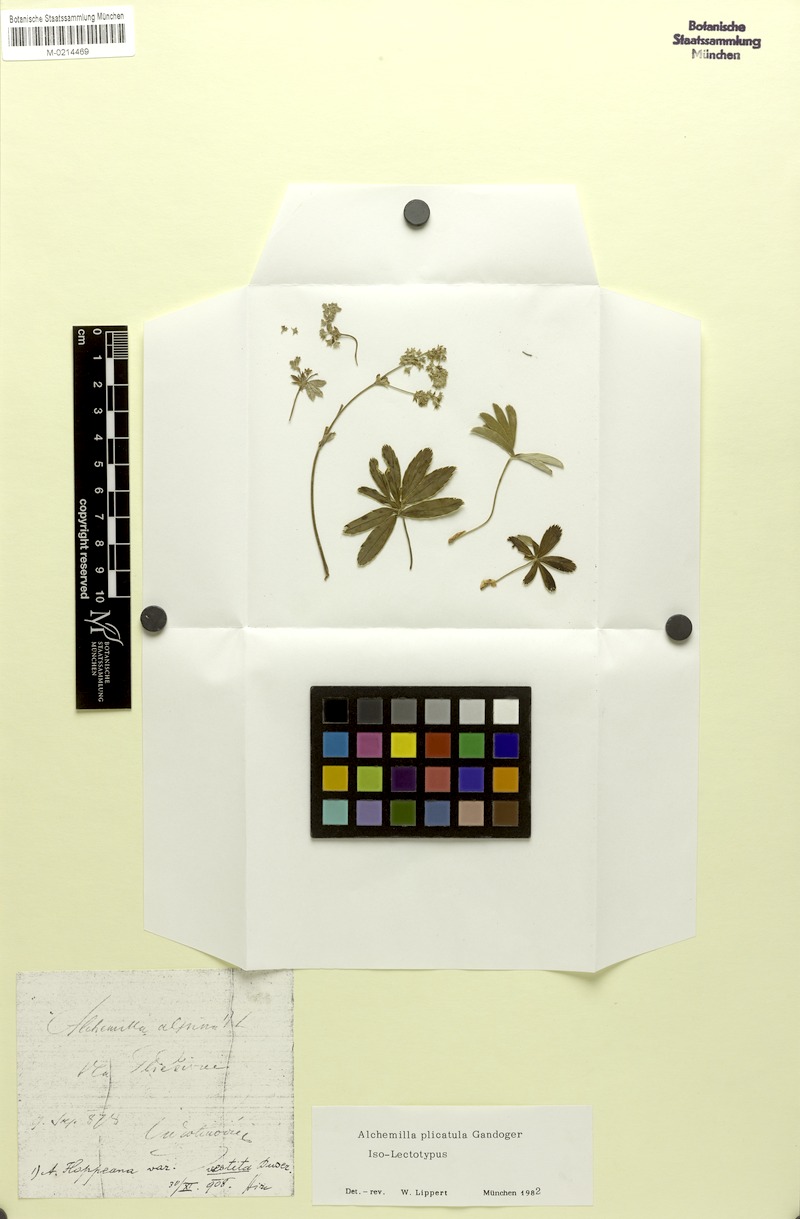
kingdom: Plantae
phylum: Tracheophyta
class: Magnoliopsida
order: Rosales
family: Rosaceae
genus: Alchemilla
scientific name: Alchemilla velebitica
